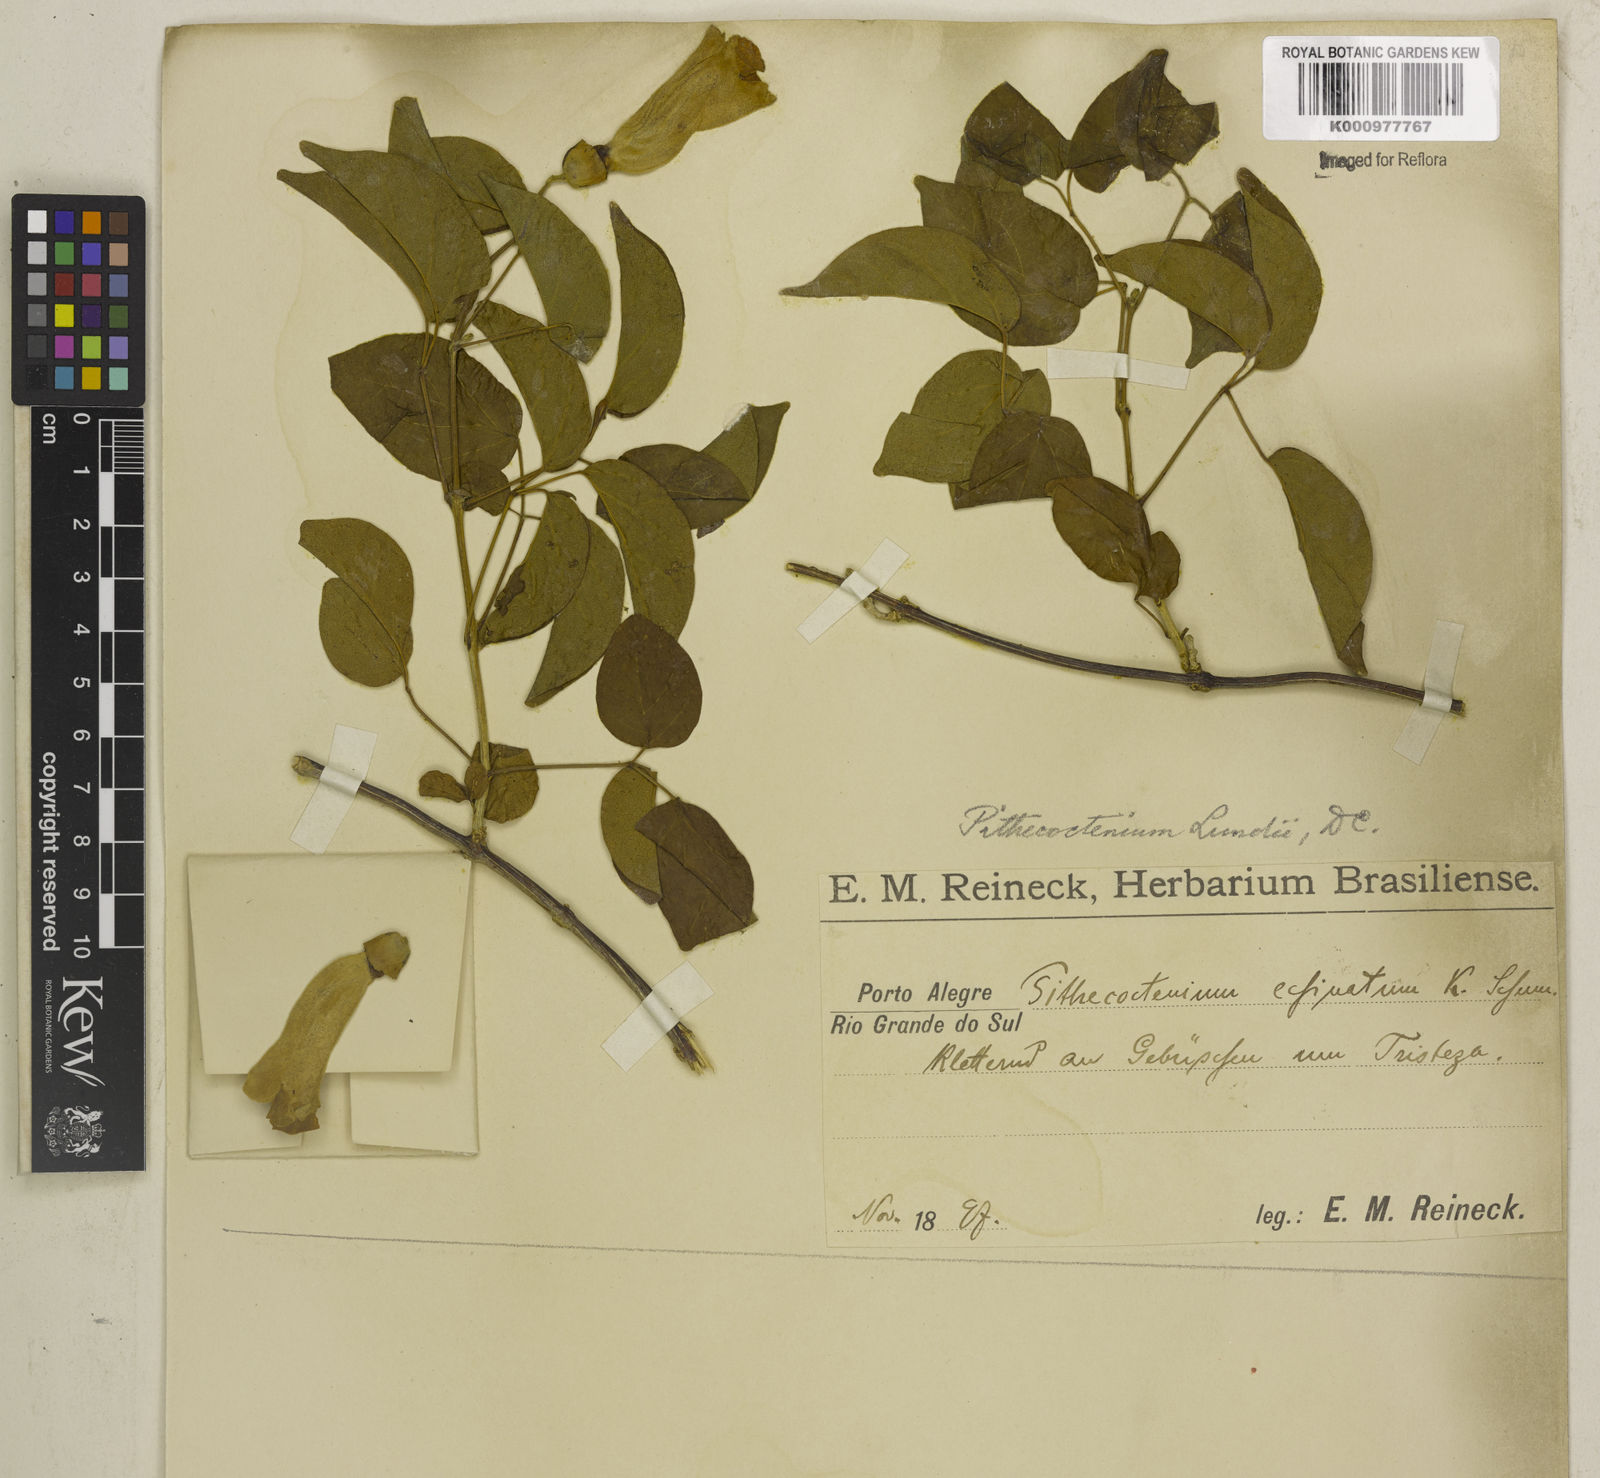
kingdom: Plantae
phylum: Tracheophyta
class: Magnoliopsida
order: Lamiales
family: Bignoniaceae
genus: Amphilophium
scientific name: Amphilophium crucigerum
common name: Monkey comb
